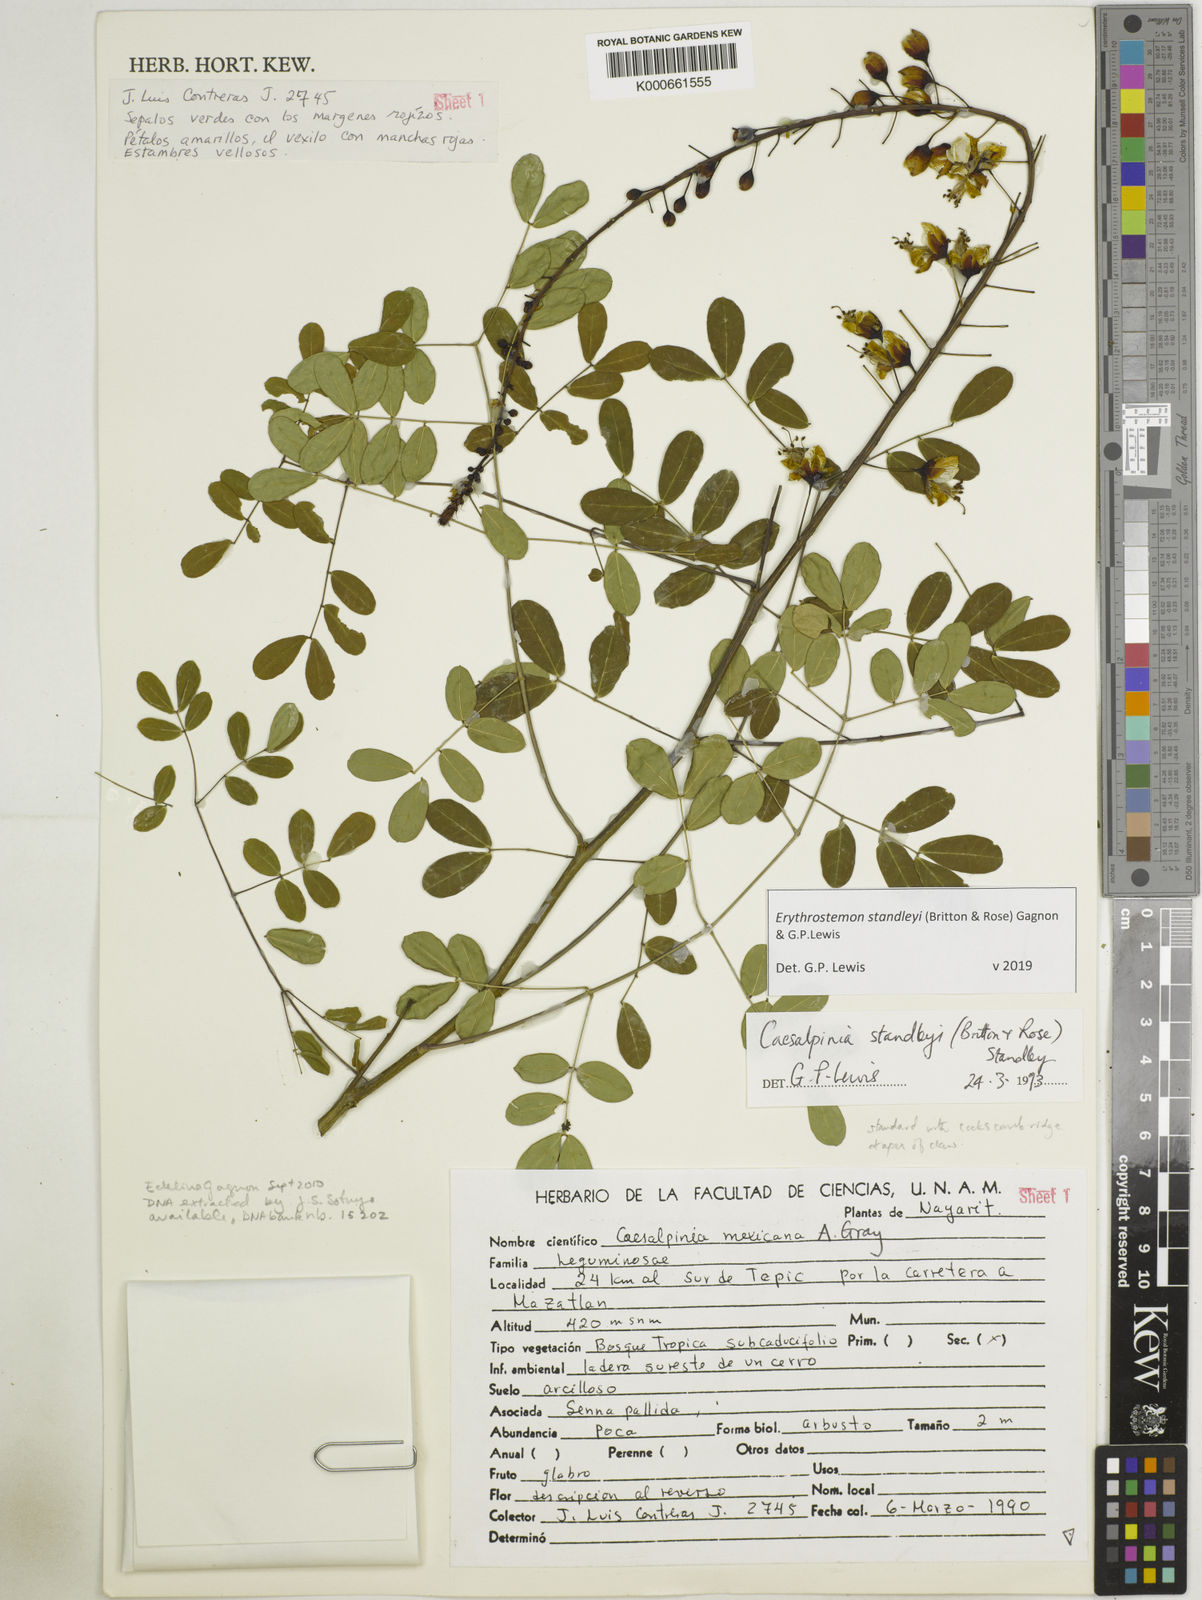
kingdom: Plantae
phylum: Tracheophyta
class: Magnoliopsida
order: Fabales
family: Fabaceae
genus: Erythrostemon
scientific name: Erythrostemon standleyi
